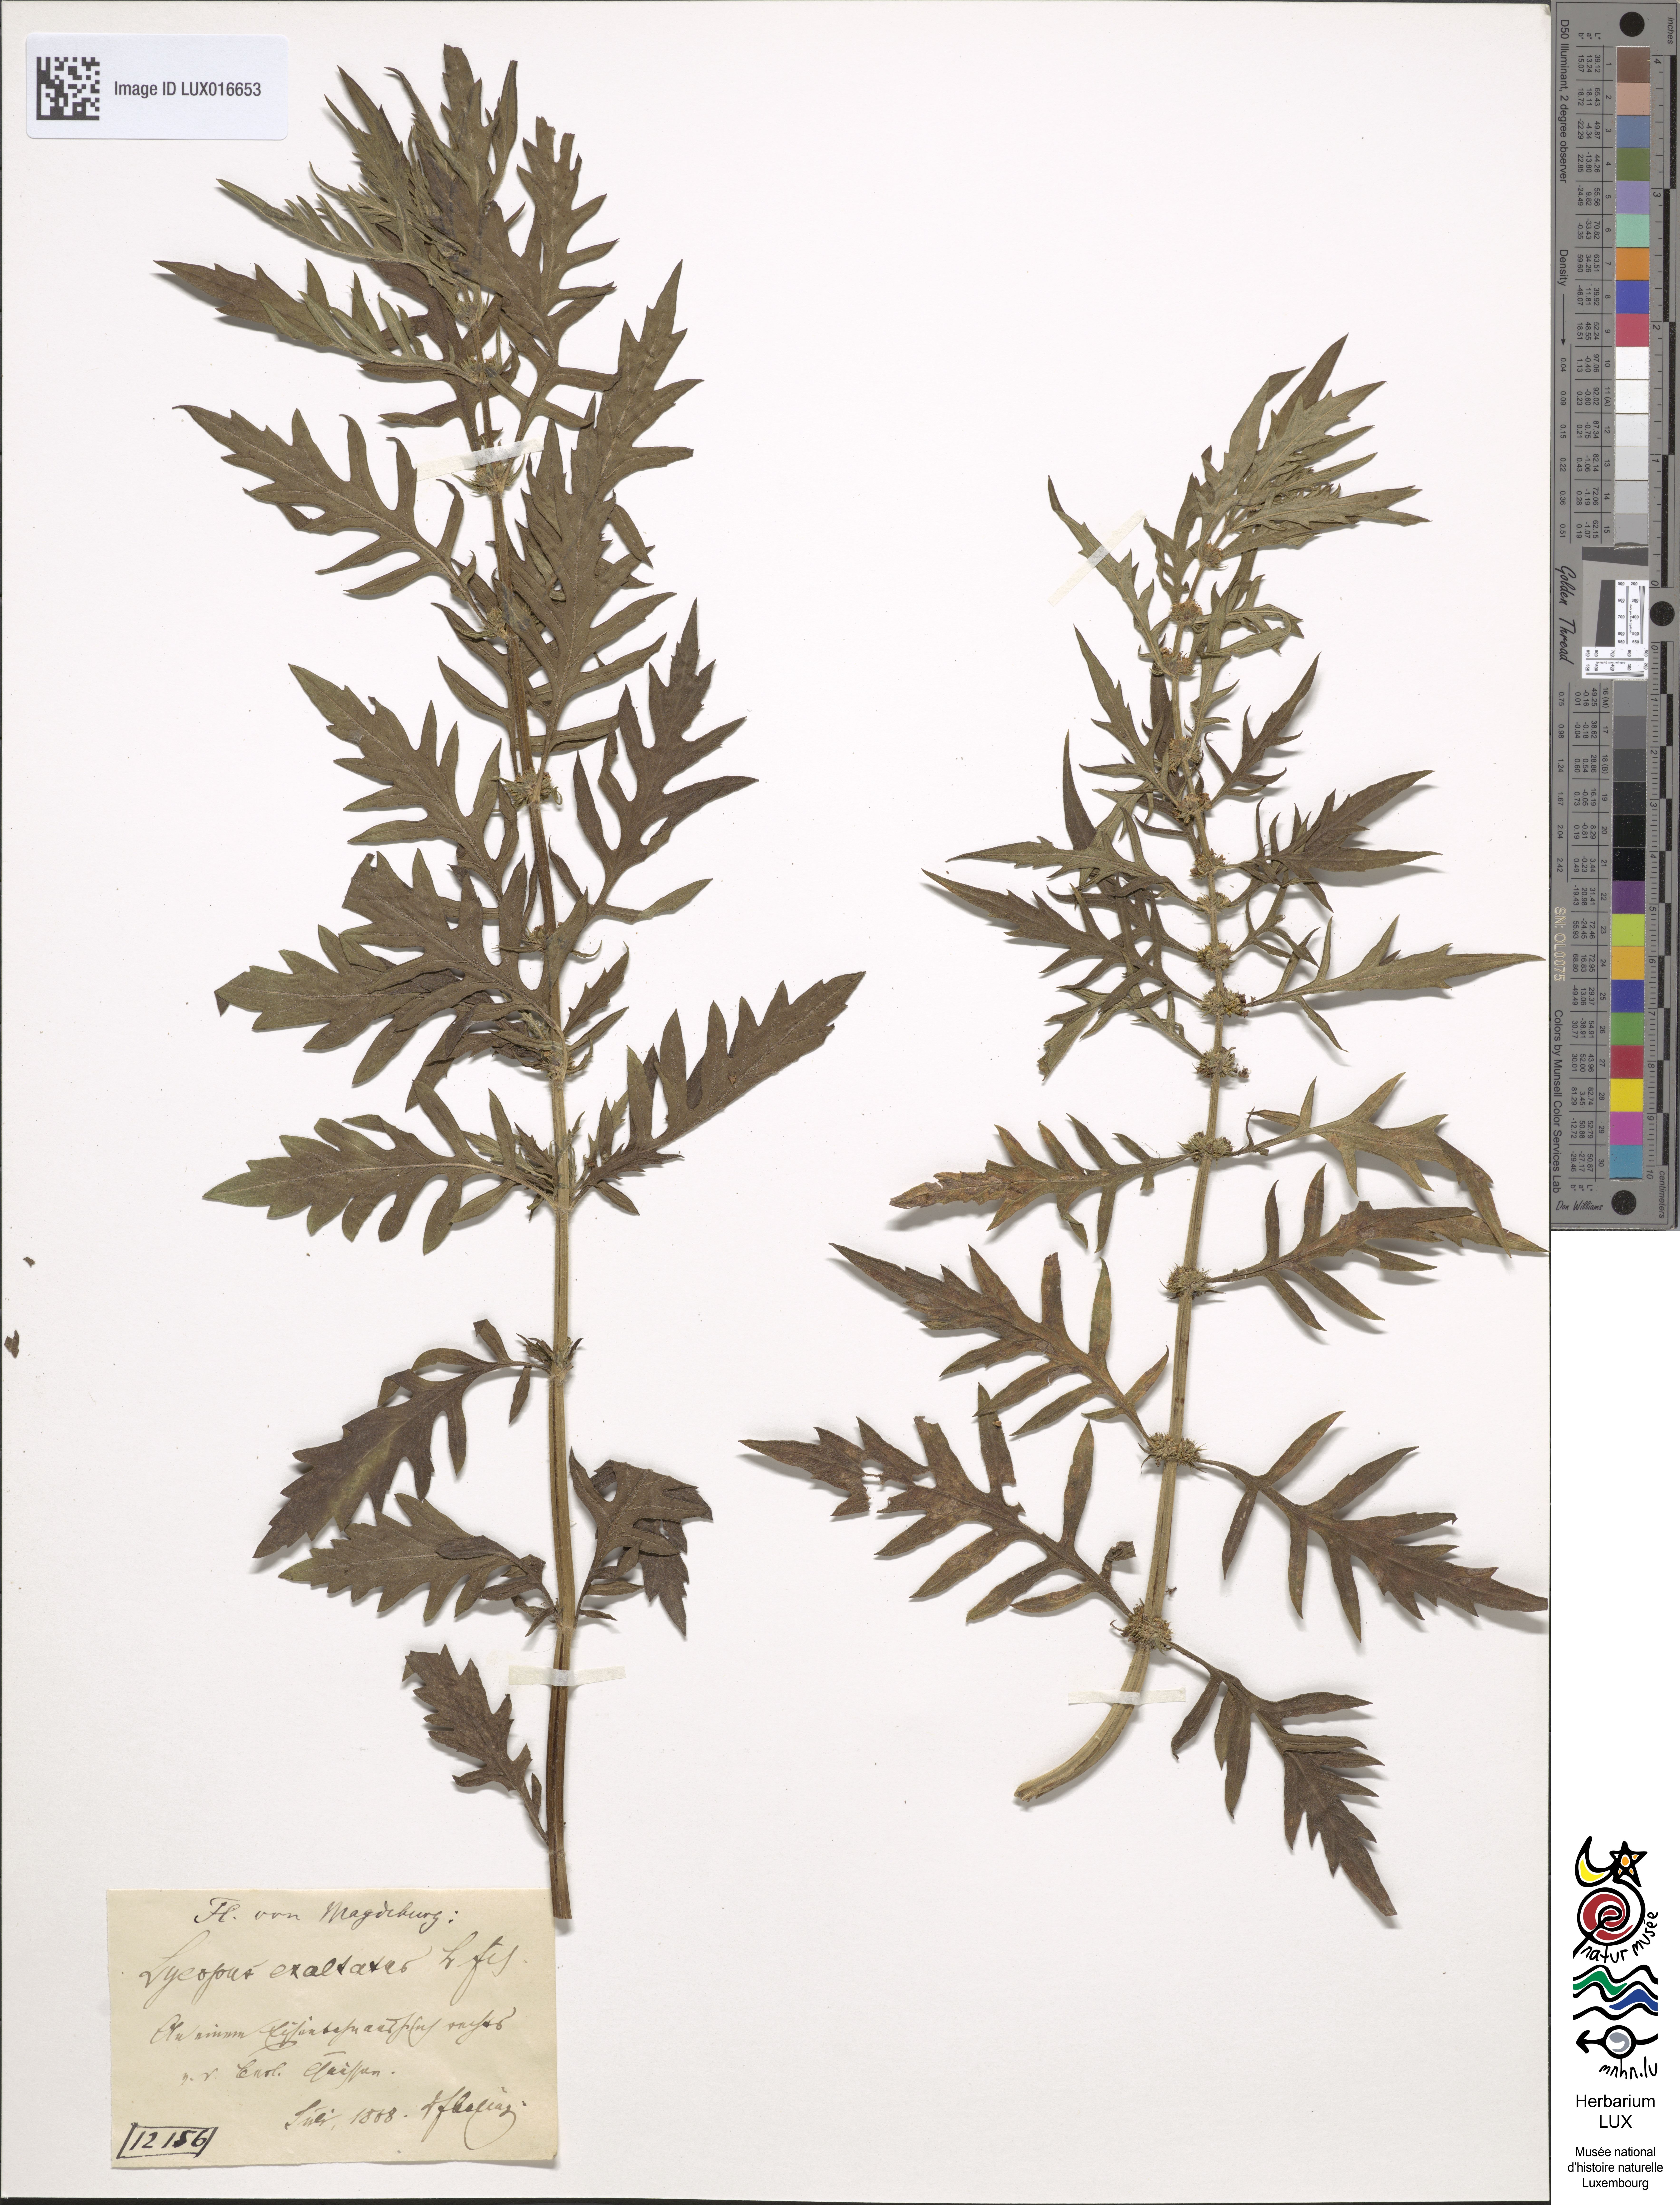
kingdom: Plantae
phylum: Tracheophyta
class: Magnoliopsida
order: Lamiales
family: Lamiaceae
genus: Lycopus
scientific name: Lycopus exaltatus
